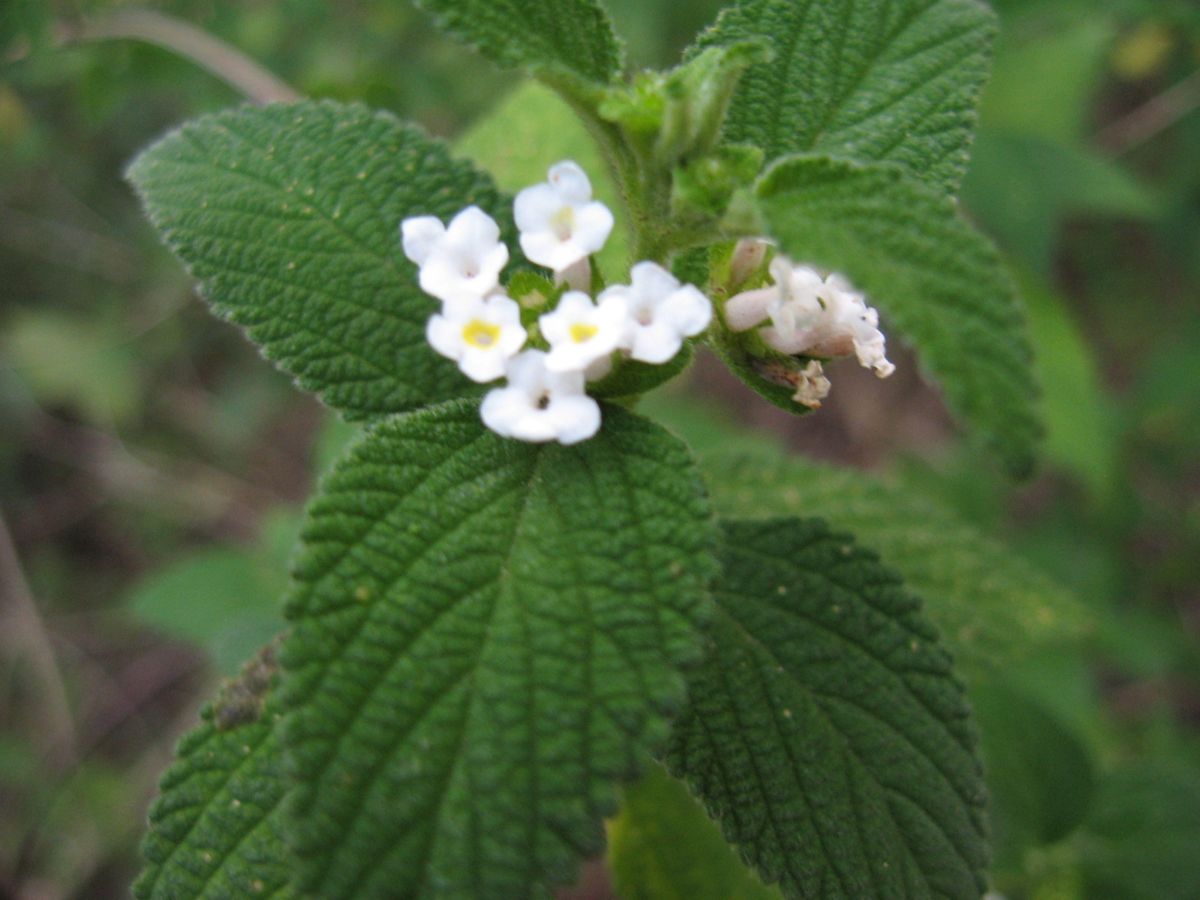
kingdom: Plantae
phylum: Tracheophyta
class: Magnoliopsida
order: Lamiales
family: Verbenaceae
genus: Lantana
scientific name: Lantana camara
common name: Lantana
